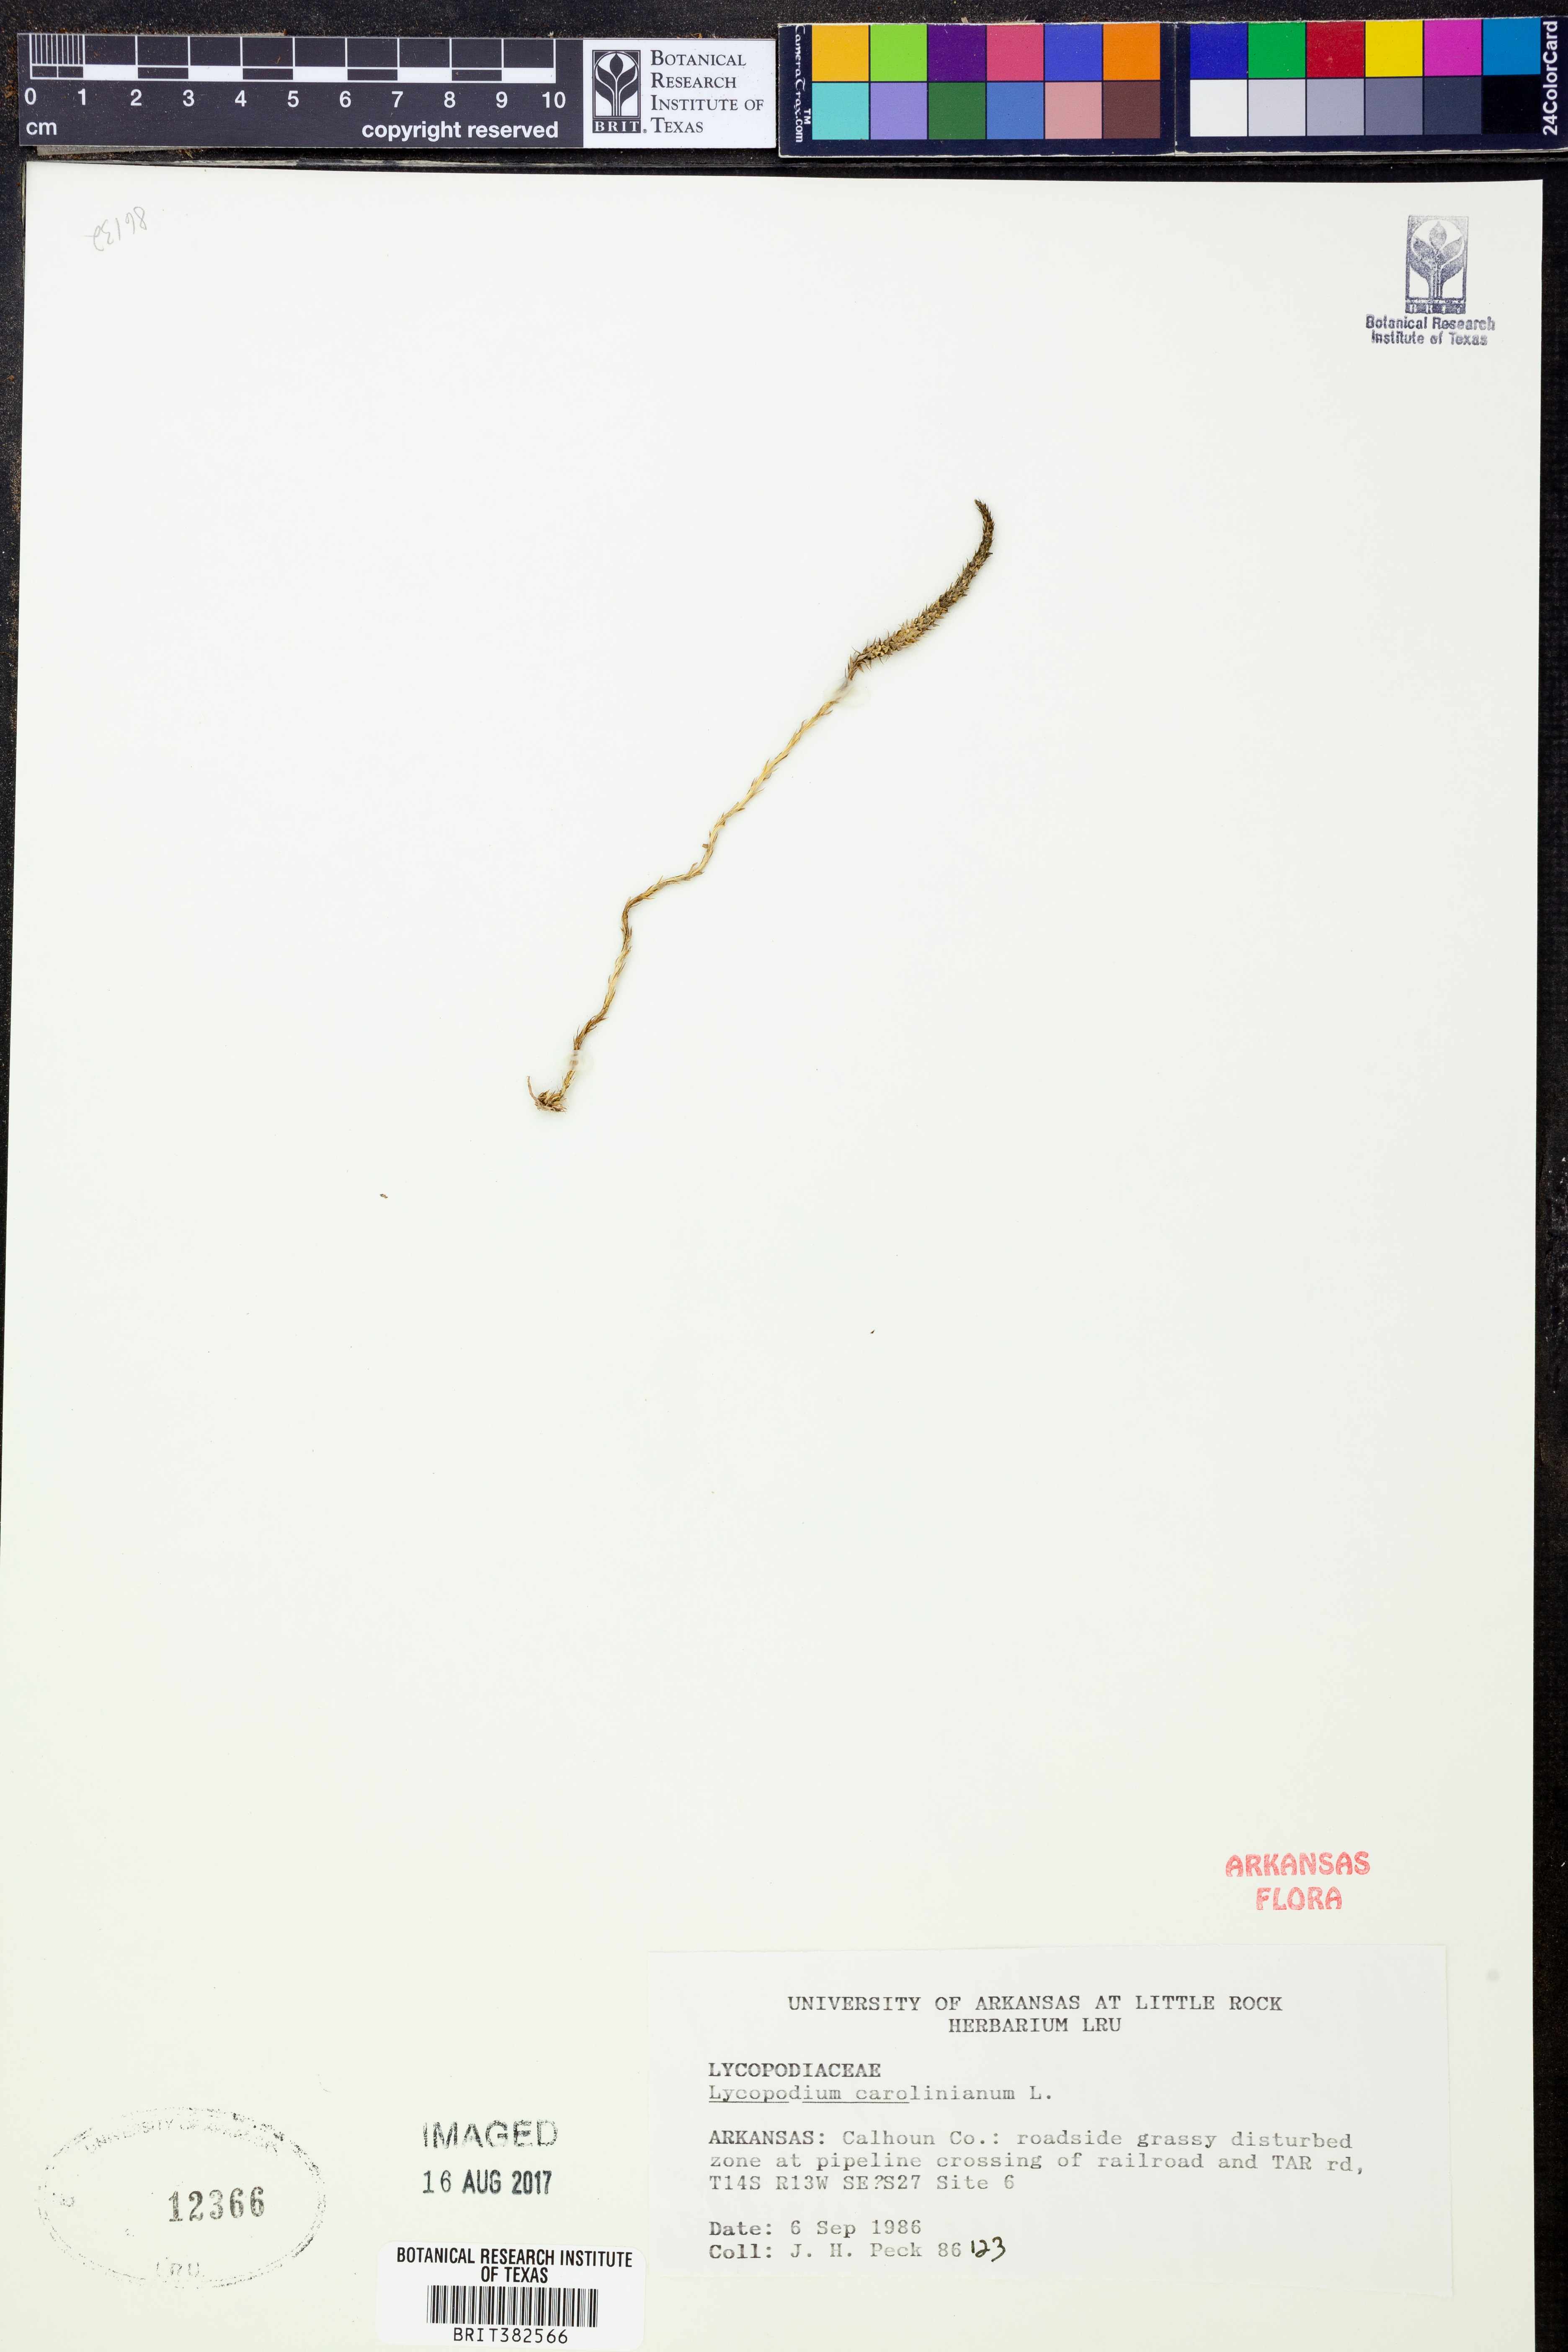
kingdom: Plantae
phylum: Tracheophyta
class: Lycopodiopsida
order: Lycopodiales
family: Lycopodiaceae
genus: Pseudolycopodiella
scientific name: Pseudolycopodiella caroliniana
